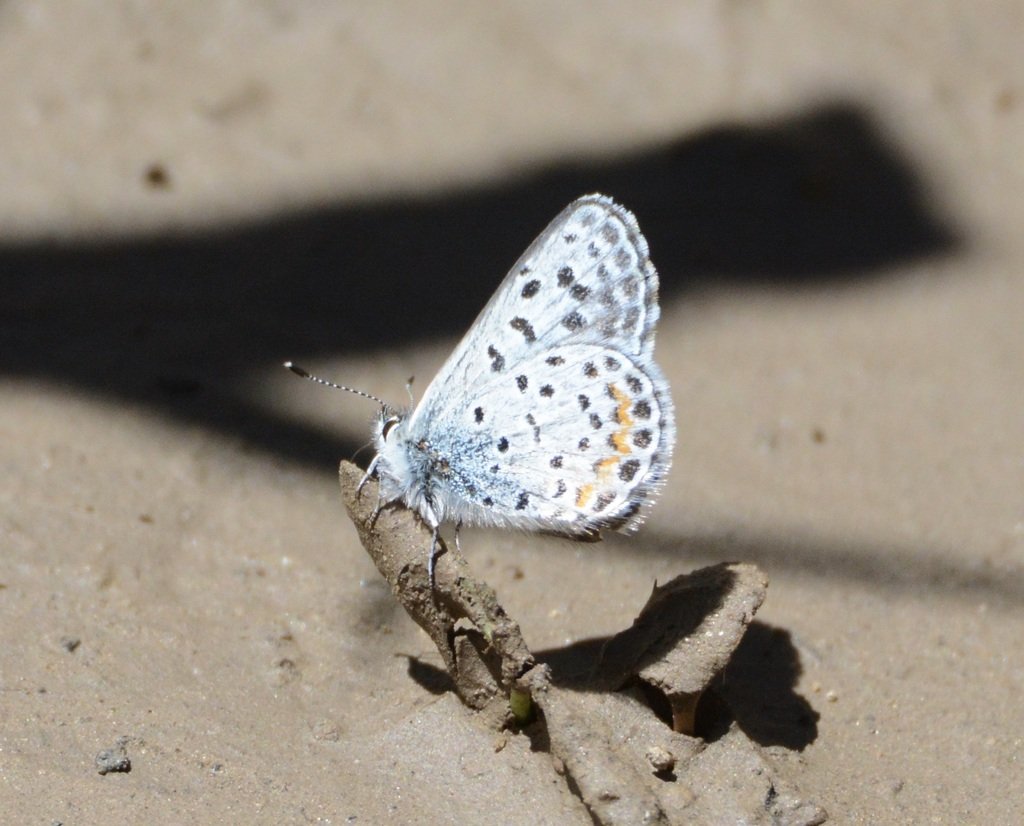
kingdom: Animalia
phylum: Arthropoda
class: Insecta
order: Lepidoptera
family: Lycaenidae
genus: Euphilotes
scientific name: Euphilotes enoptes
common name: Dotted Blue
